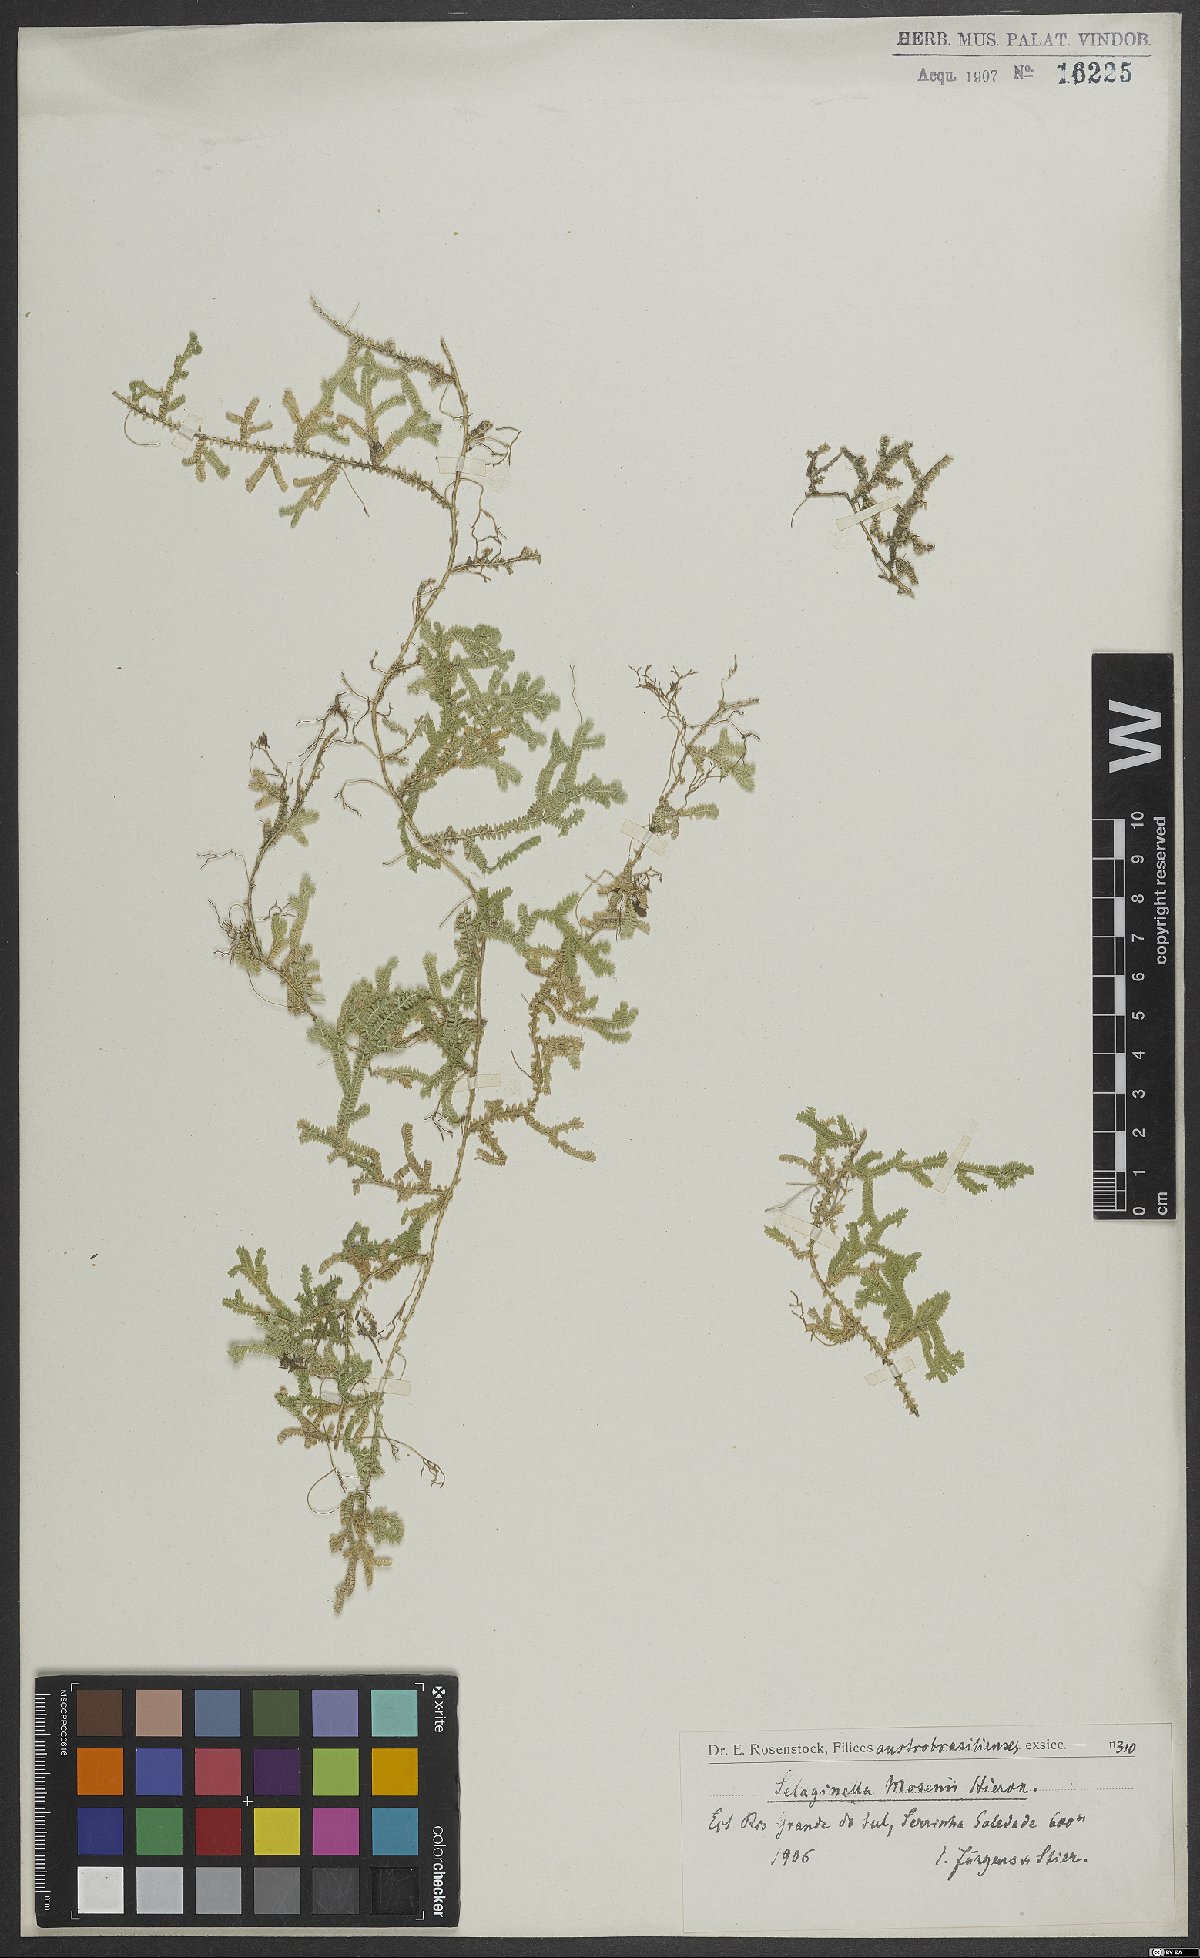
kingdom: Plantae
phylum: Tracheophyta
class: Lycopodiopsida
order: Selaginellales
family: Selaginellaceae
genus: Selaginella
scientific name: Selaginella marginata
